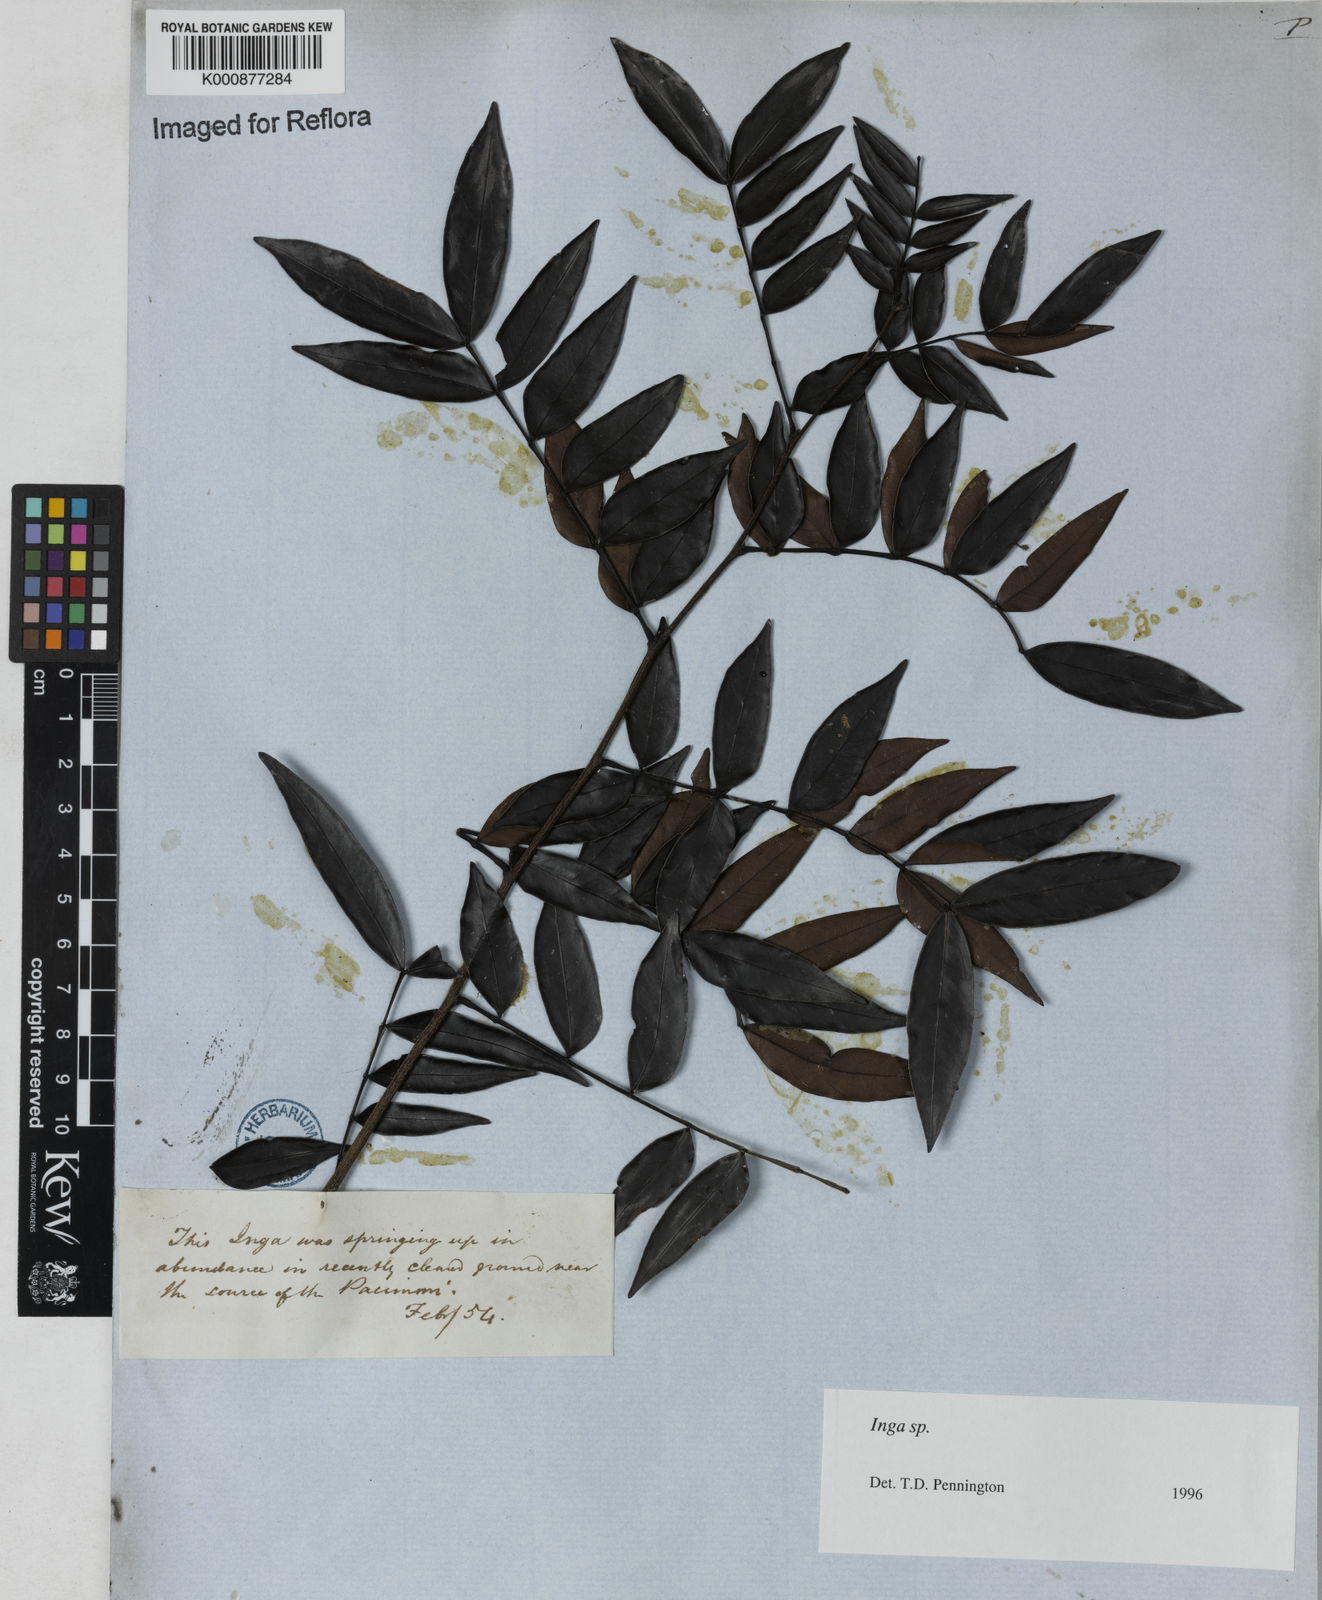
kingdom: Plantae
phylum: Tracheophyta
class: Magnoliopsida
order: Fabales
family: Fabaceae
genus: Inga
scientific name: Inga
